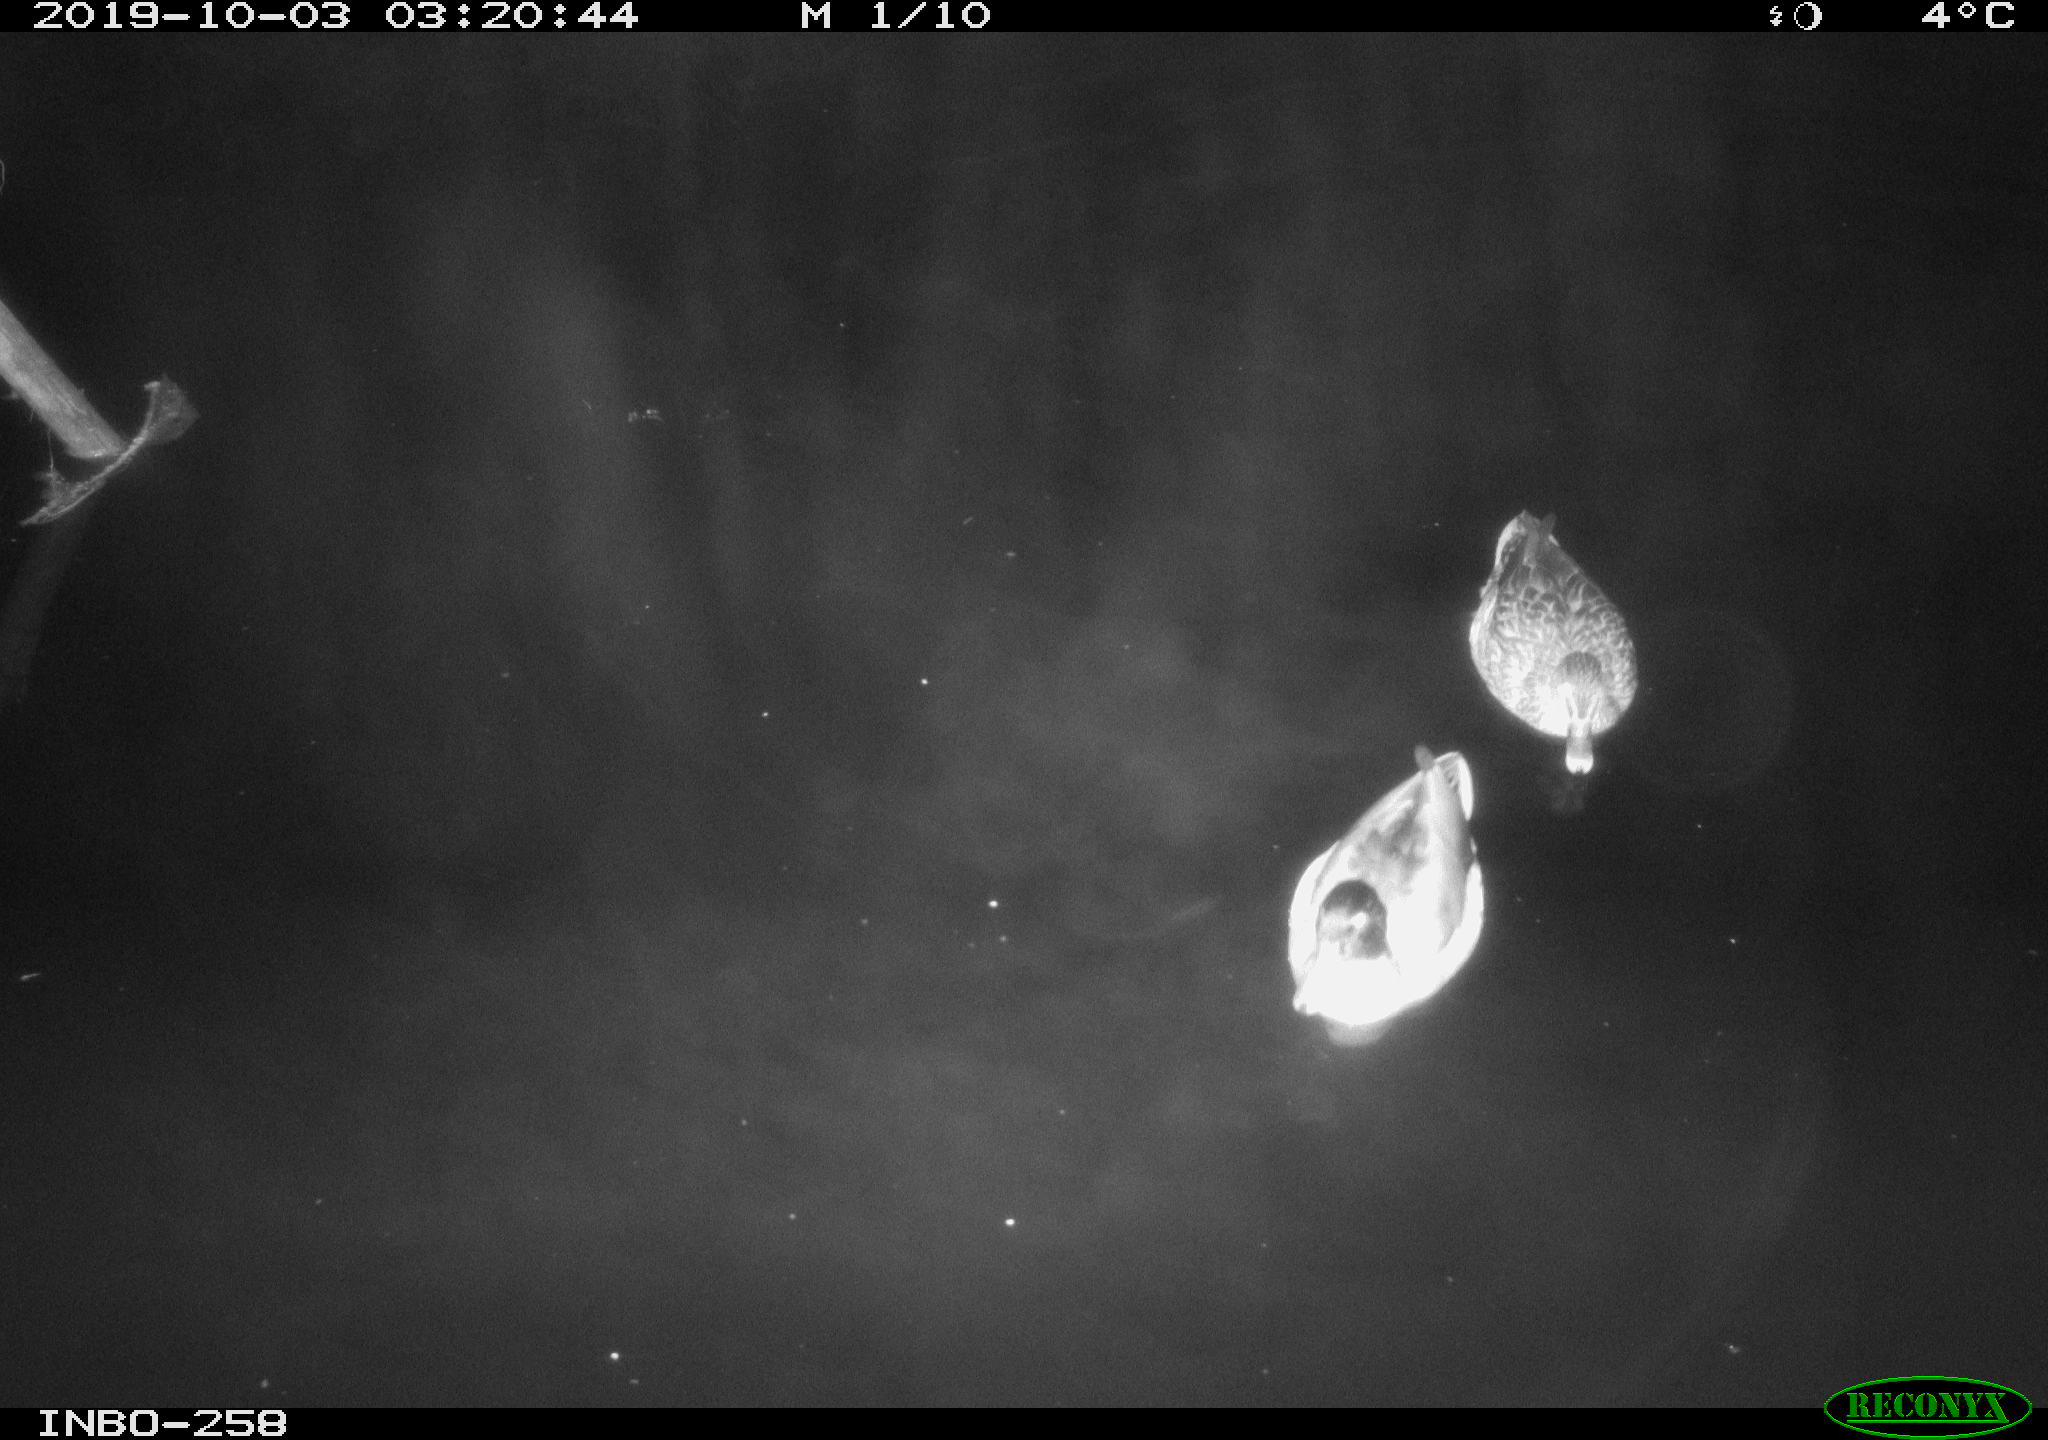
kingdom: Animalia
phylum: Chordata
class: Aves
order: Anseriformes
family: Anatidae
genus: Anas
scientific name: Anas platyrhynchos
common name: Mallard
